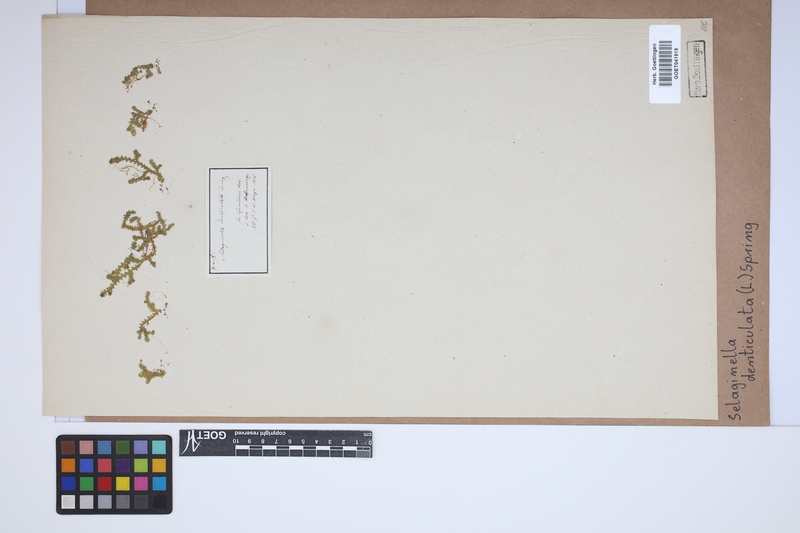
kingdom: Plantae
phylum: Tracheophyta
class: Lycopodiopsida
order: Selaginellales
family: Selaginellaceae
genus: Selaginella
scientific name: Selaginella denticulata
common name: Toothed-leaved clubmoss
